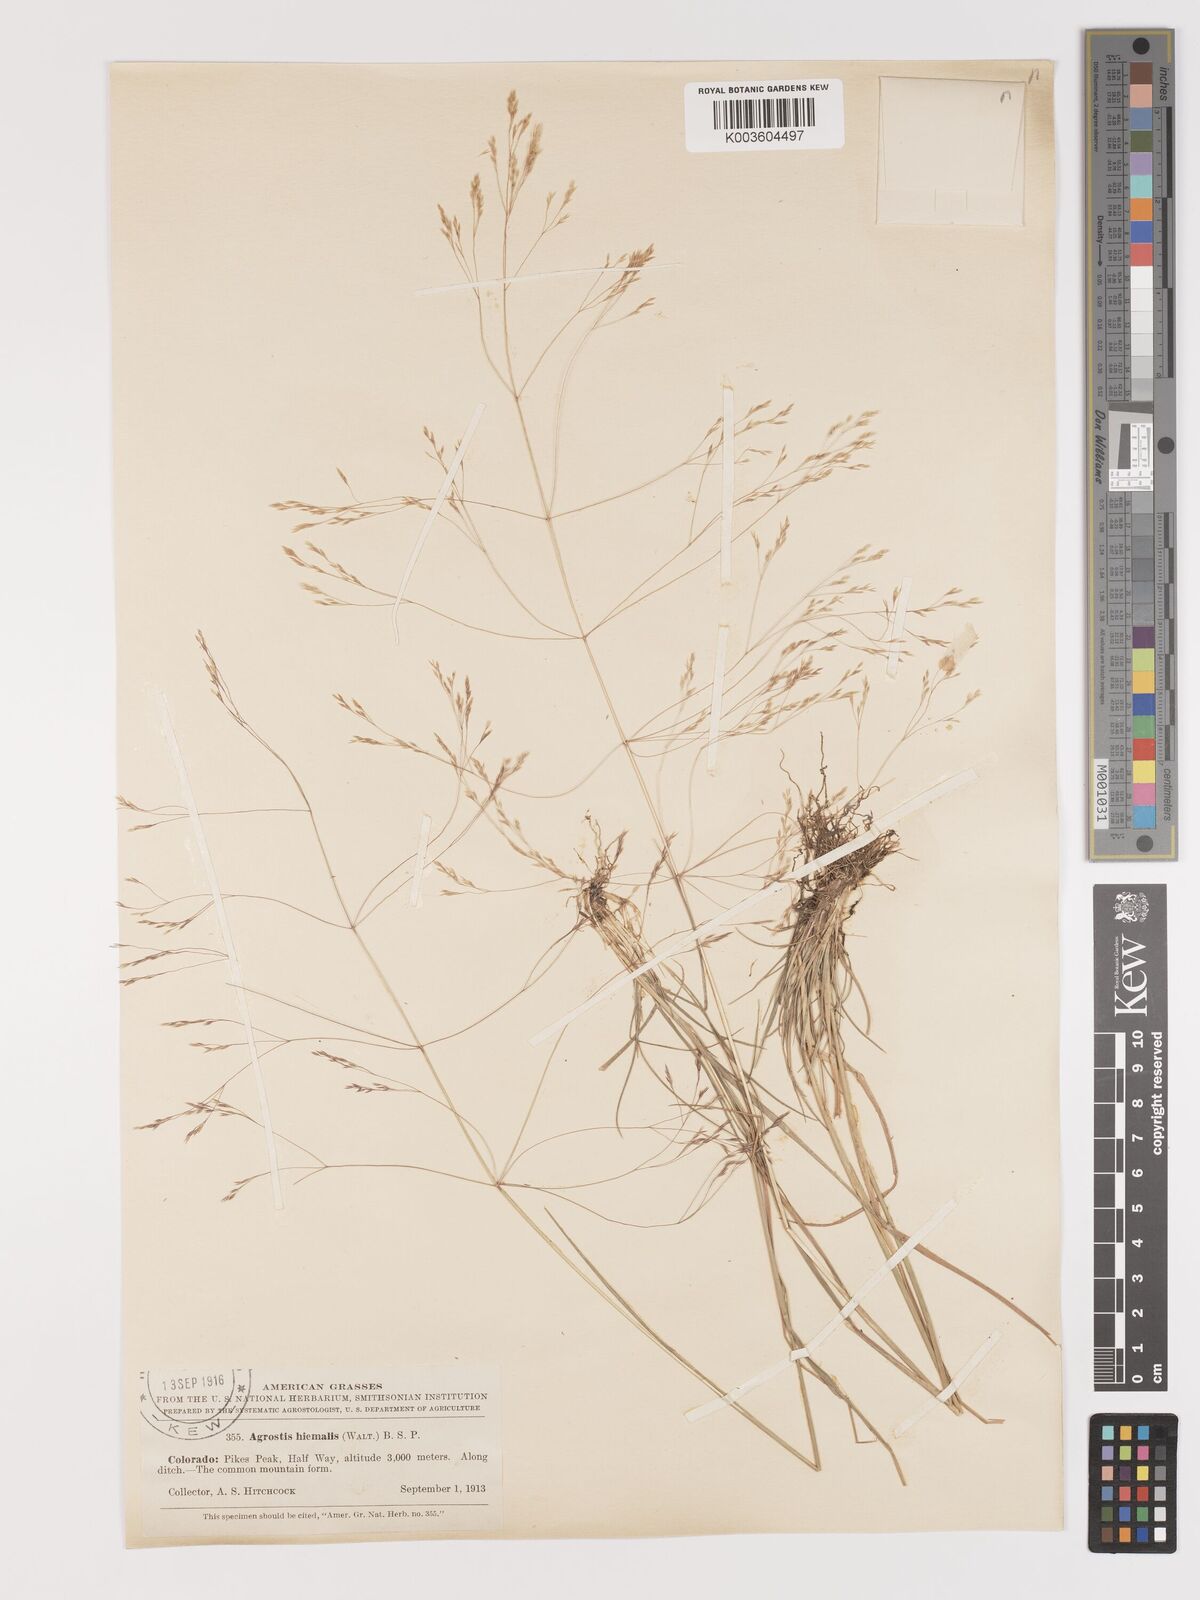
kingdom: Plantae
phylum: Tracheophyta
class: Liliopsida
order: Poales
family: Poaceae
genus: Agrostis
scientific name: Agrostis hyemalis
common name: Small bent
